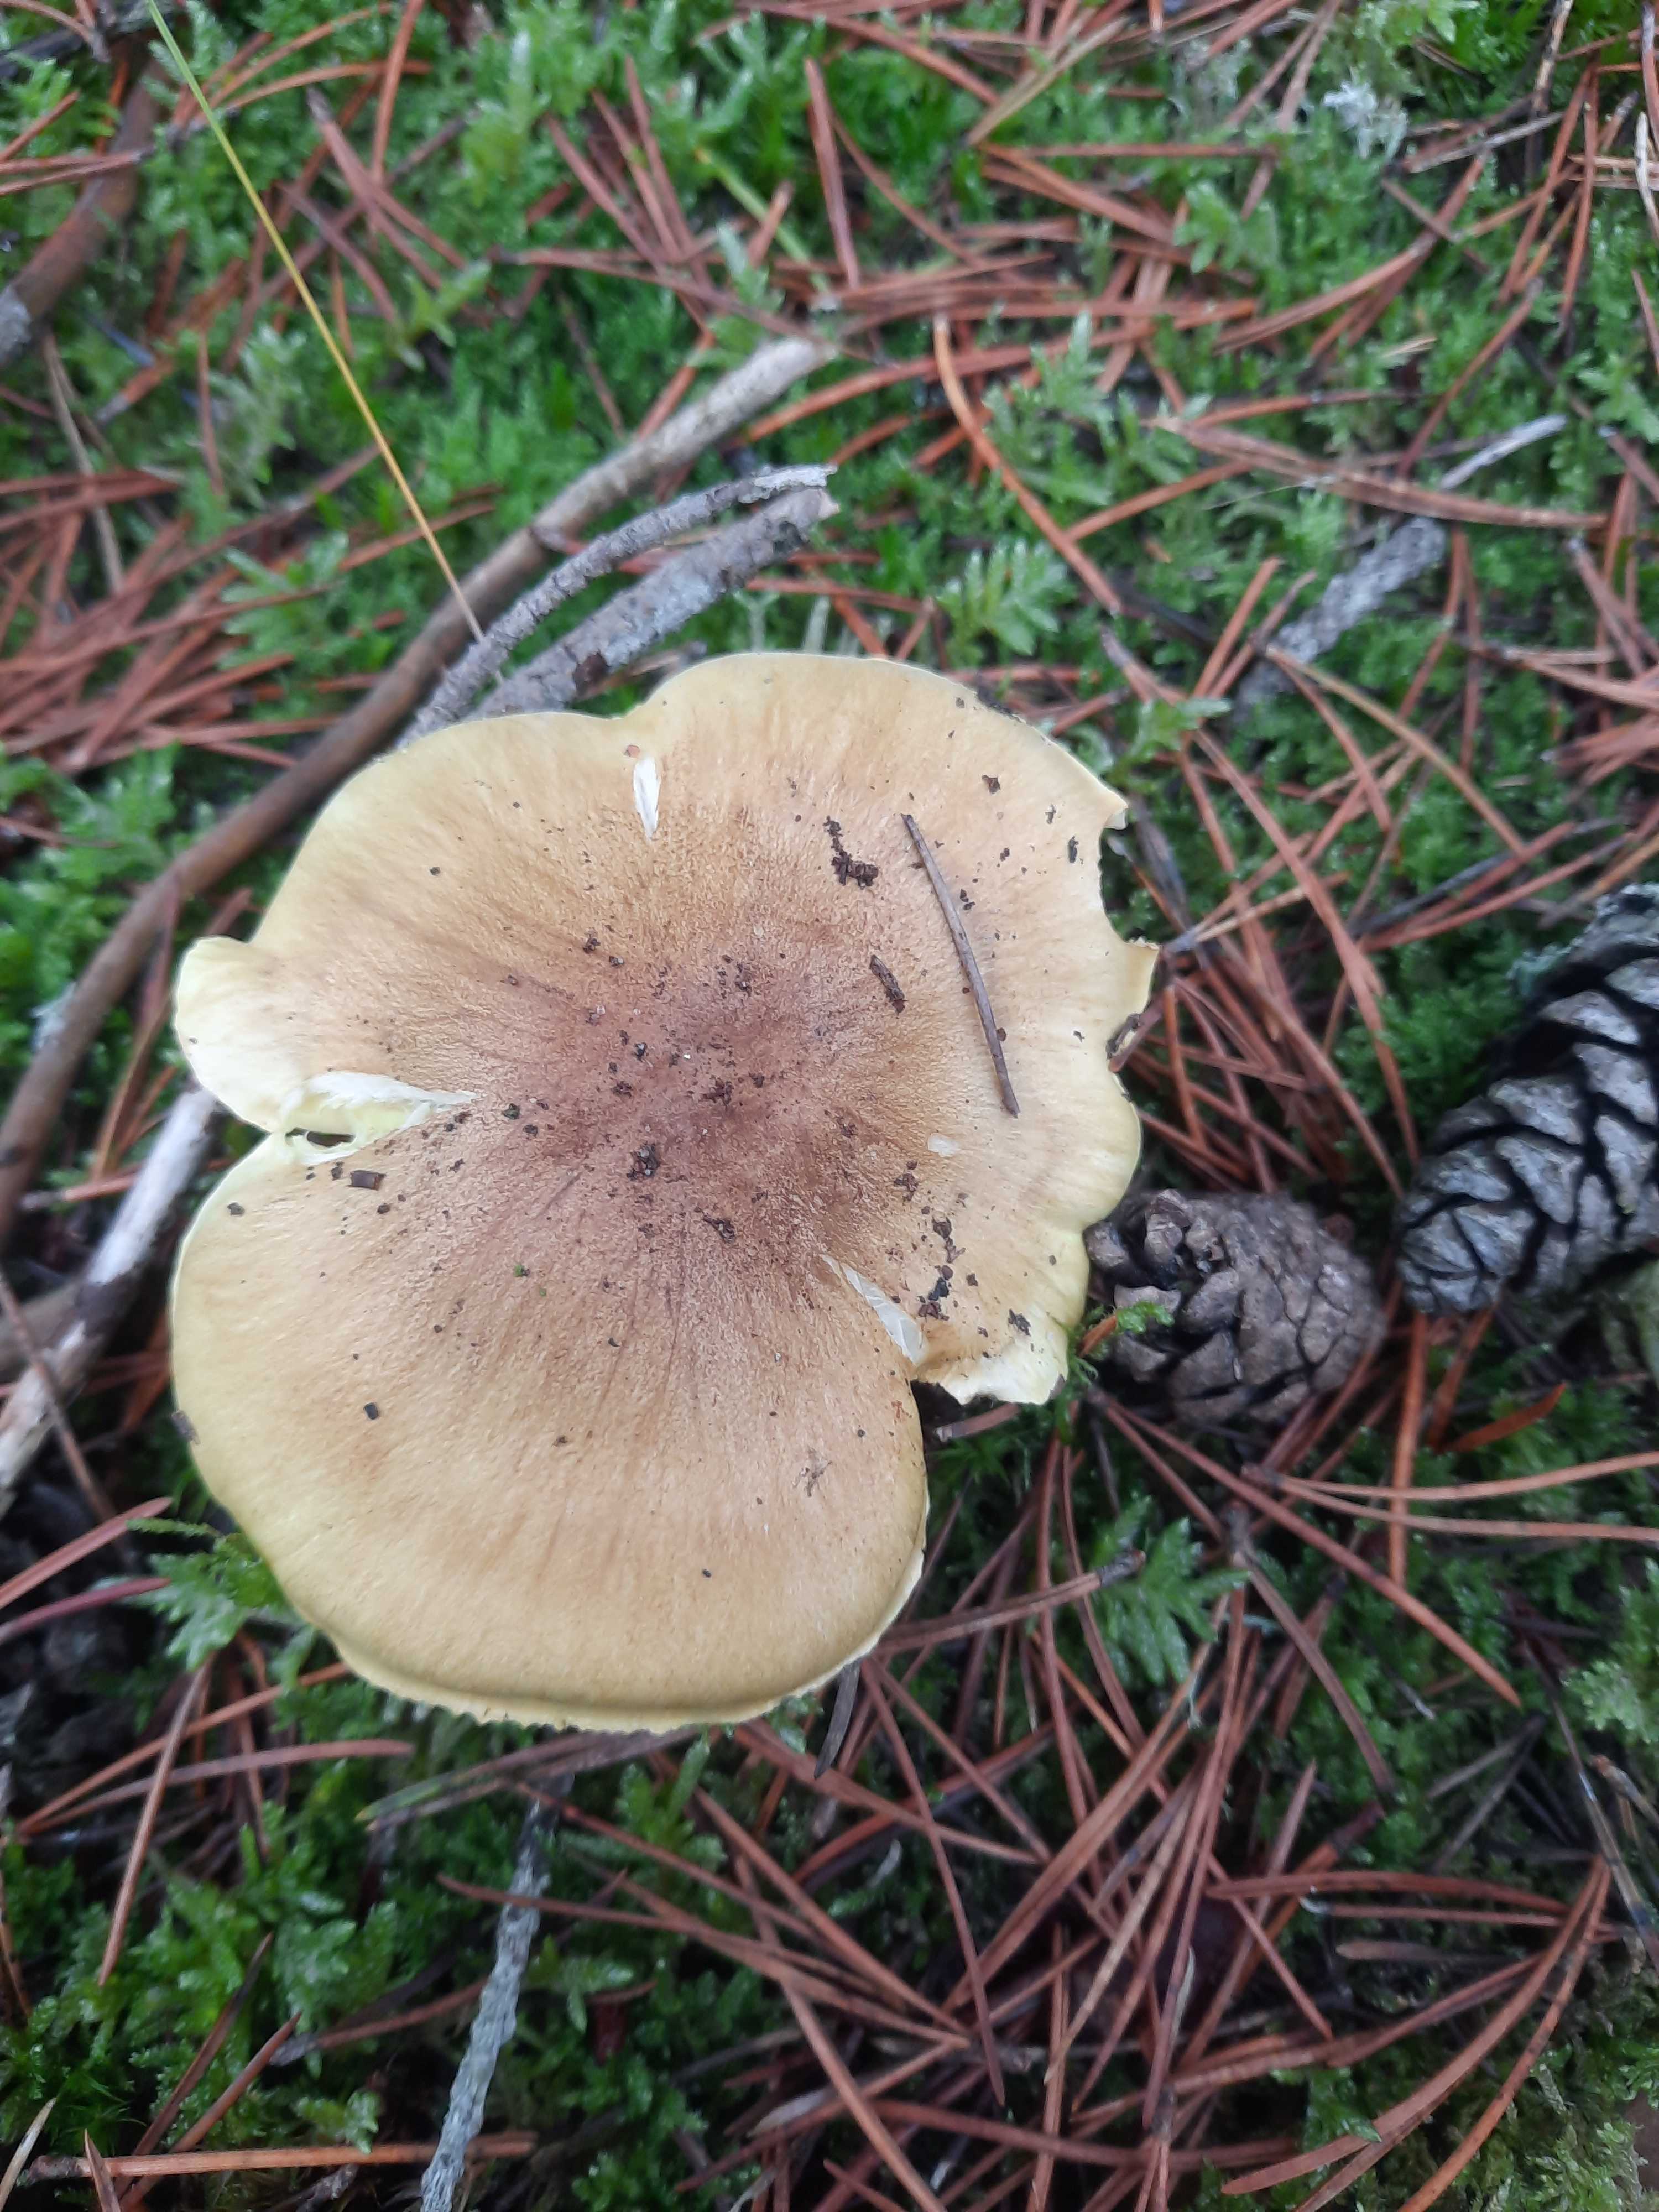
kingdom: Fungi
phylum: Basidiomycota
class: Agaricomycetes
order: Agaricales
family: Tricholomataceae
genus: Tricholoma
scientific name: Tricholoma equestre
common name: ægte ridderhat
